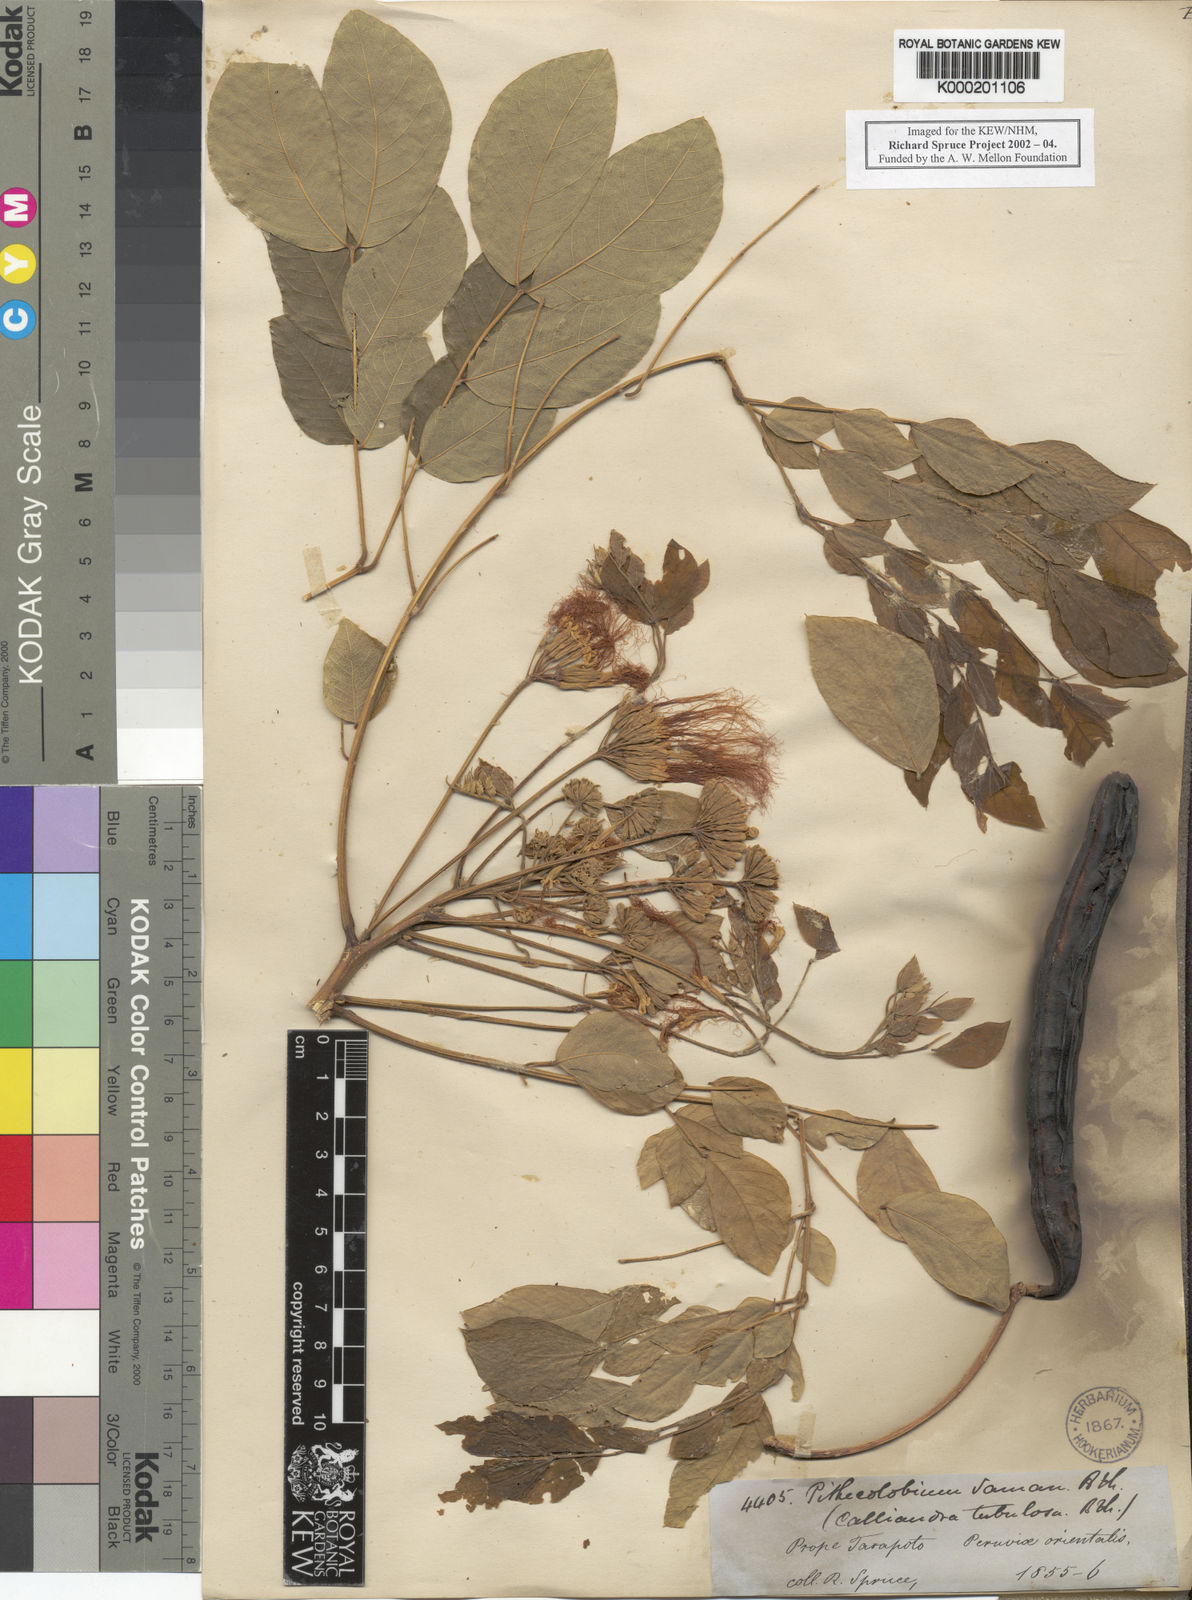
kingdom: Plantae
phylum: Tracheophyta
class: Magnoliopsida
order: Fabales
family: Fabaceae
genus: Samanea
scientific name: Samanea saman
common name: Raintree
